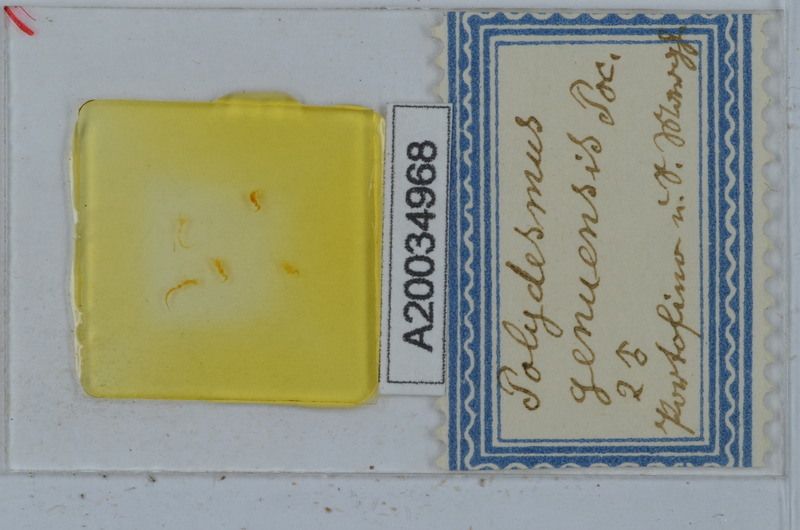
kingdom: Animalia
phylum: Arthropoda
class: Diplopoda
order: Polydesmida
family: Polydesmidae
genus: Polydesmus
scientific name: Polydesmus genuensis
